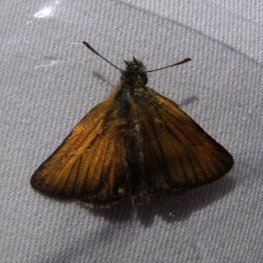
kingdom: Animalia
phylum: Arthropoda
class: Insecta
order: Lepidoptera
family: Hesperiidae
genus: Thymelicus
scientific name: Thymelicus lineola
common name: European Skipper
